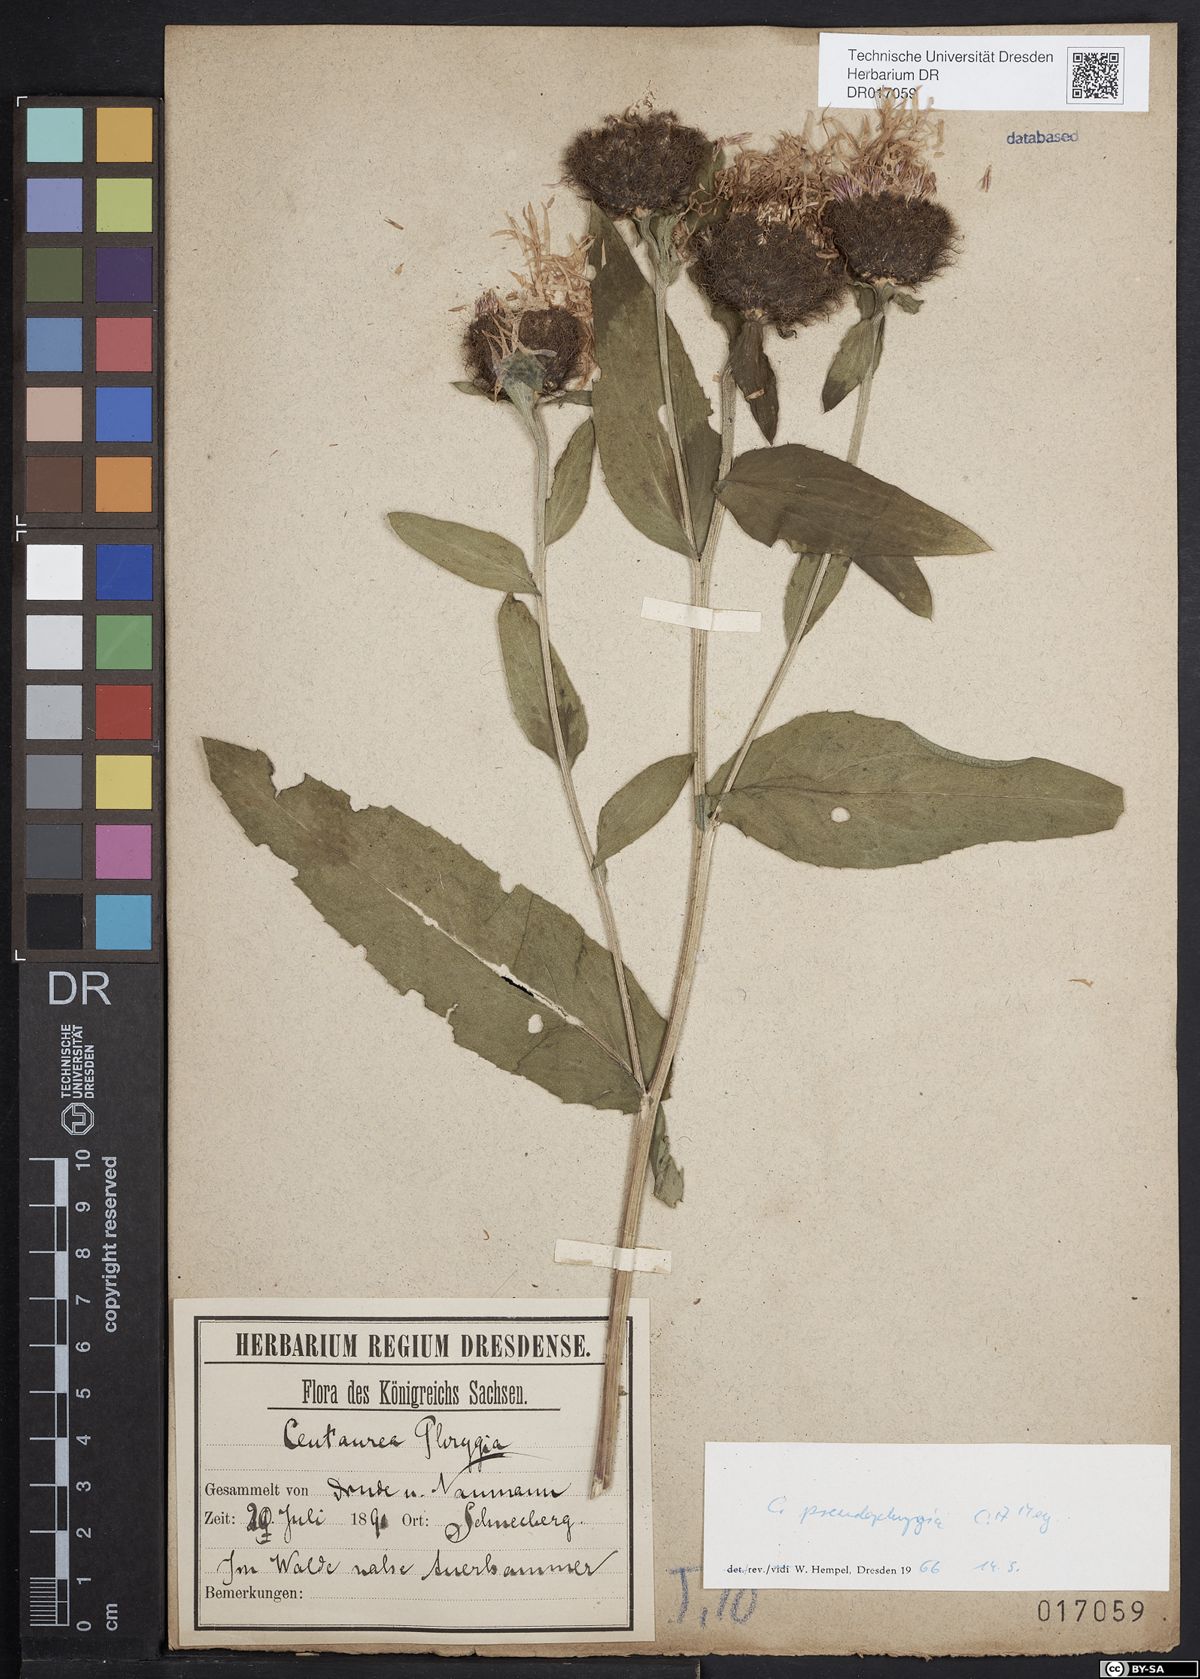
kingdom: Plantae
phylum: Tracheophyta
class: Magnoliopsida
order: Asterales
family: Asteraceae
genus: Centaurea
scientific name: Centaurea pseudophrygia
